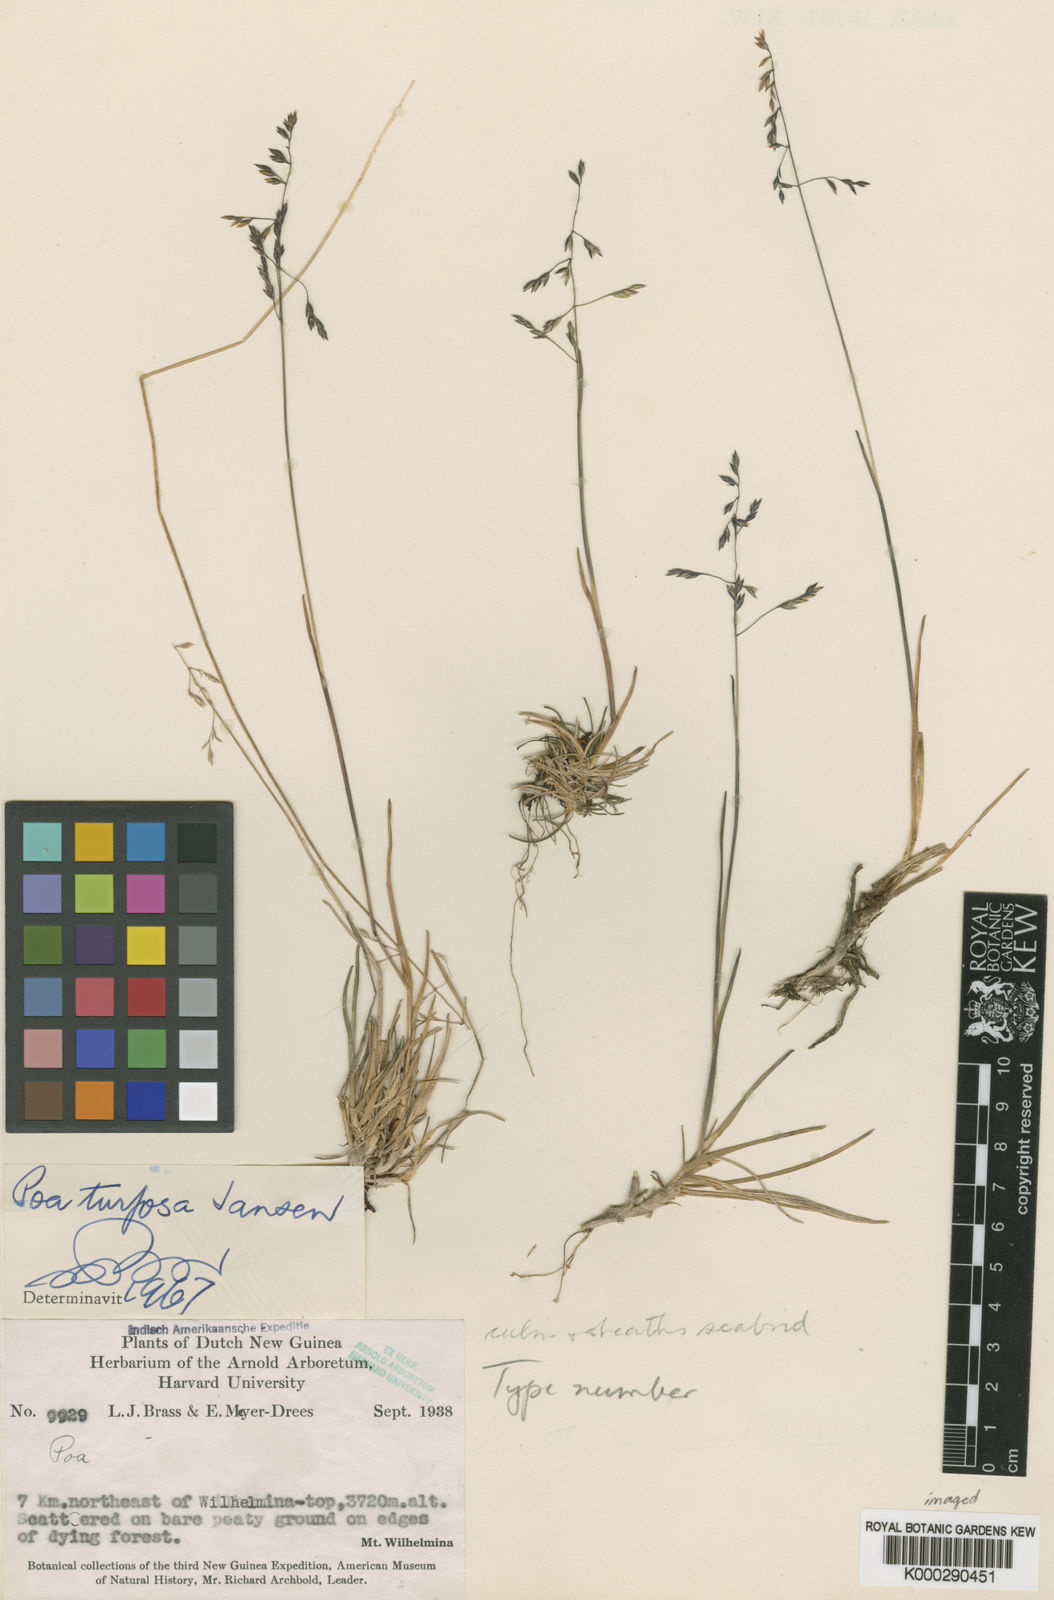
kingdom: Plantae
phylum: Tracheophyta
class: Liliopsida
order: Poales
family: Poaceae
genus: Poa
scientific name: Poa jansenii
